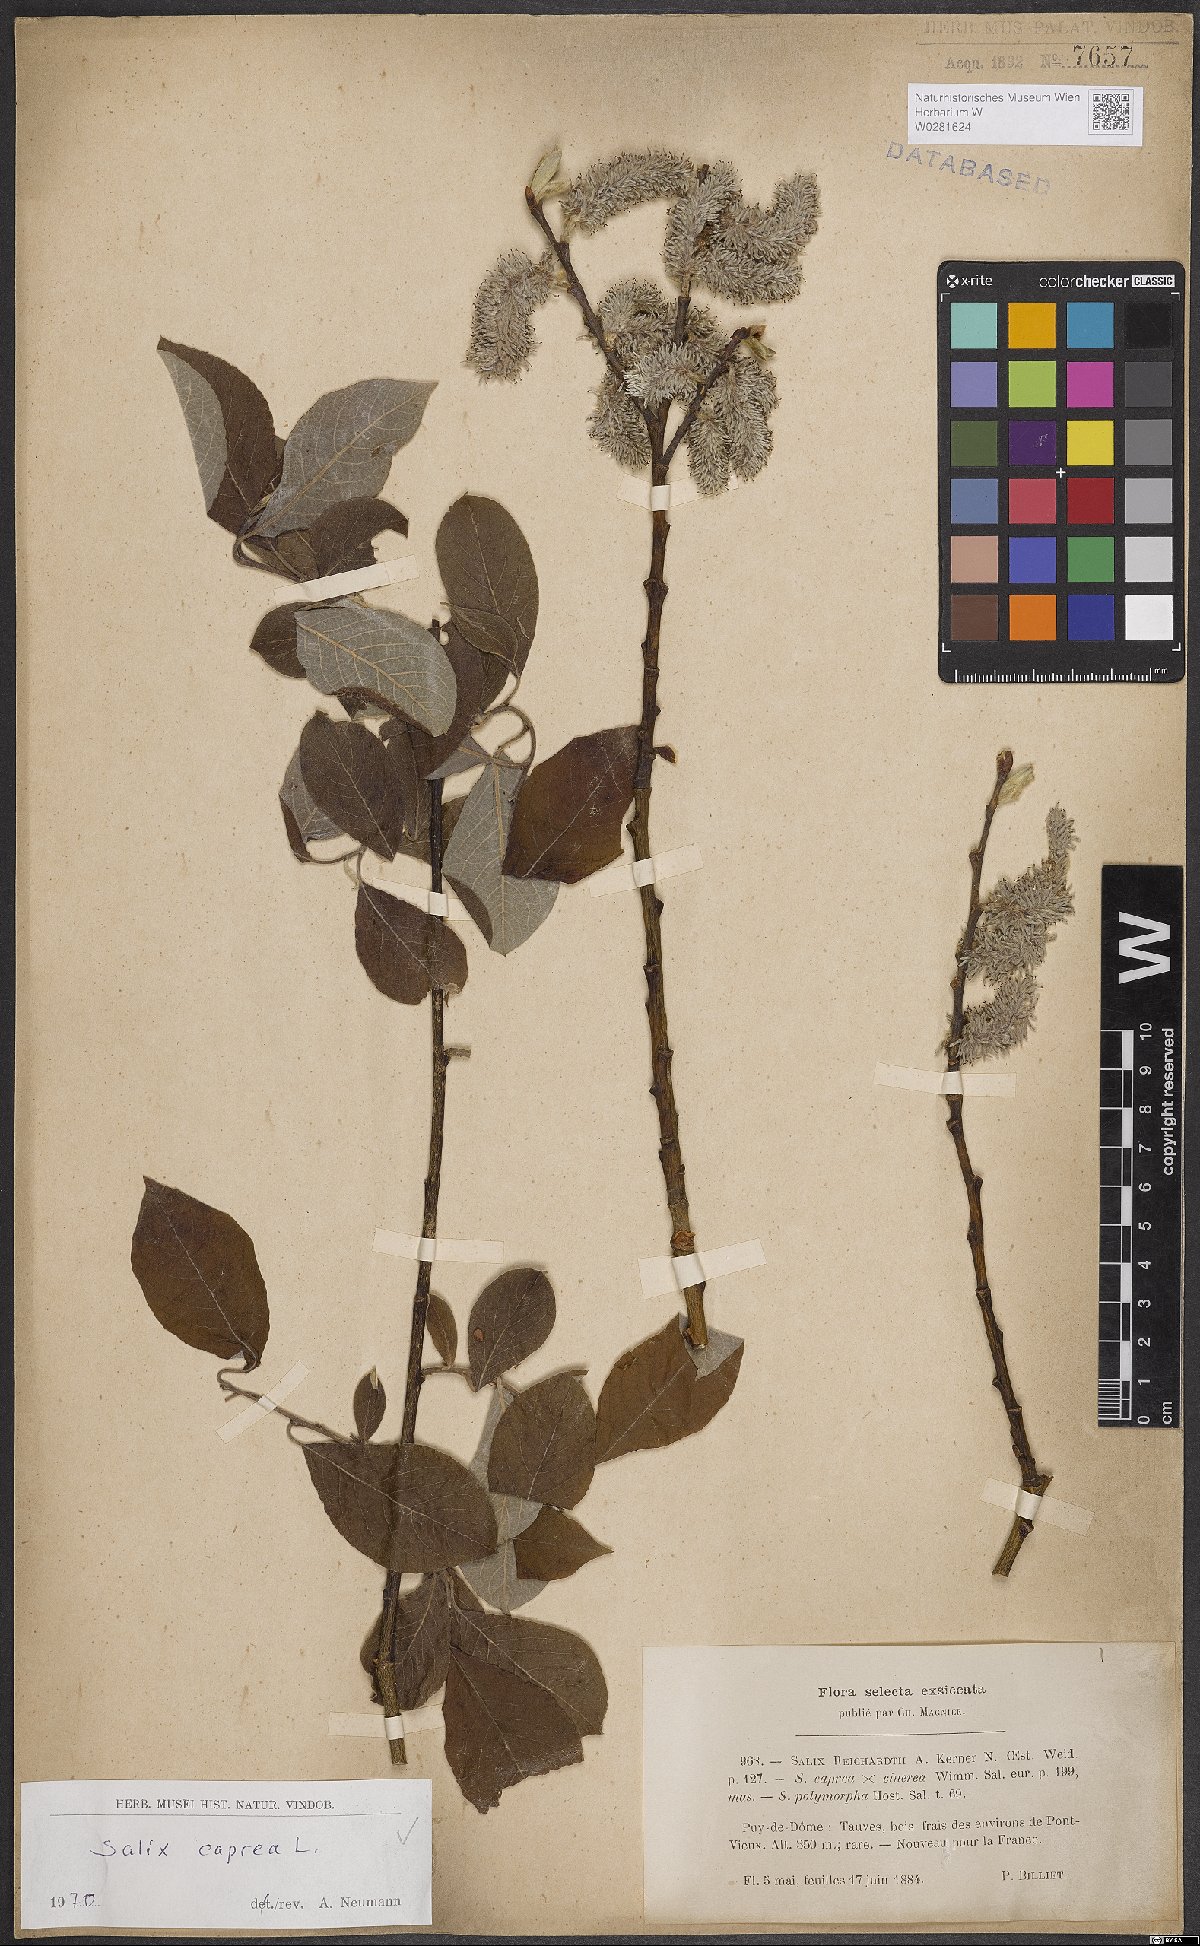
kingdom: Plantae
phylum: Tracheophyta
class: Magnoliopsida
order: Malpighiales
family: Salicaceae
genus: Salix
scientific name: Salix caprea
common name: Goat willow
